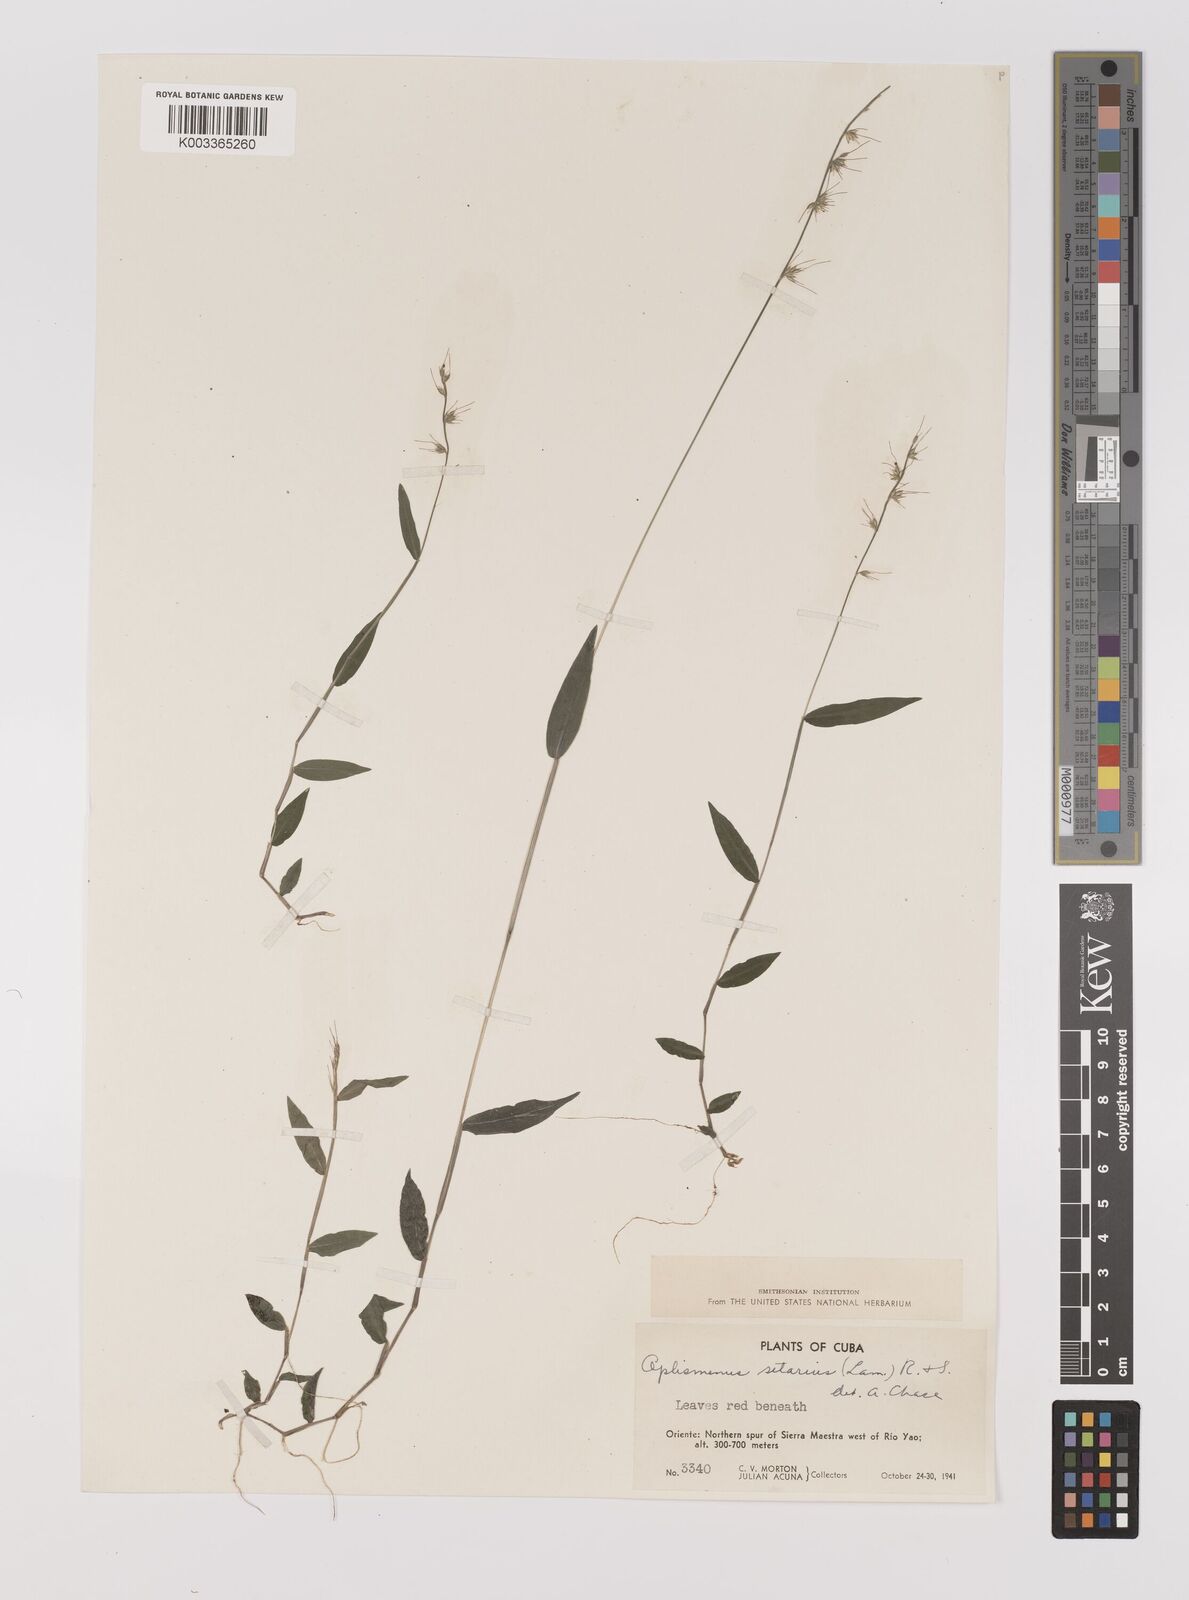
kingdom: Plantae
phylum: Tracheophyta
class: Liliopsida
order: Poales
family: Poaceae
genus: Oplismenus
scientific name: Oplismenus undulatifolius
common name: Wavyleaf basketgrass
